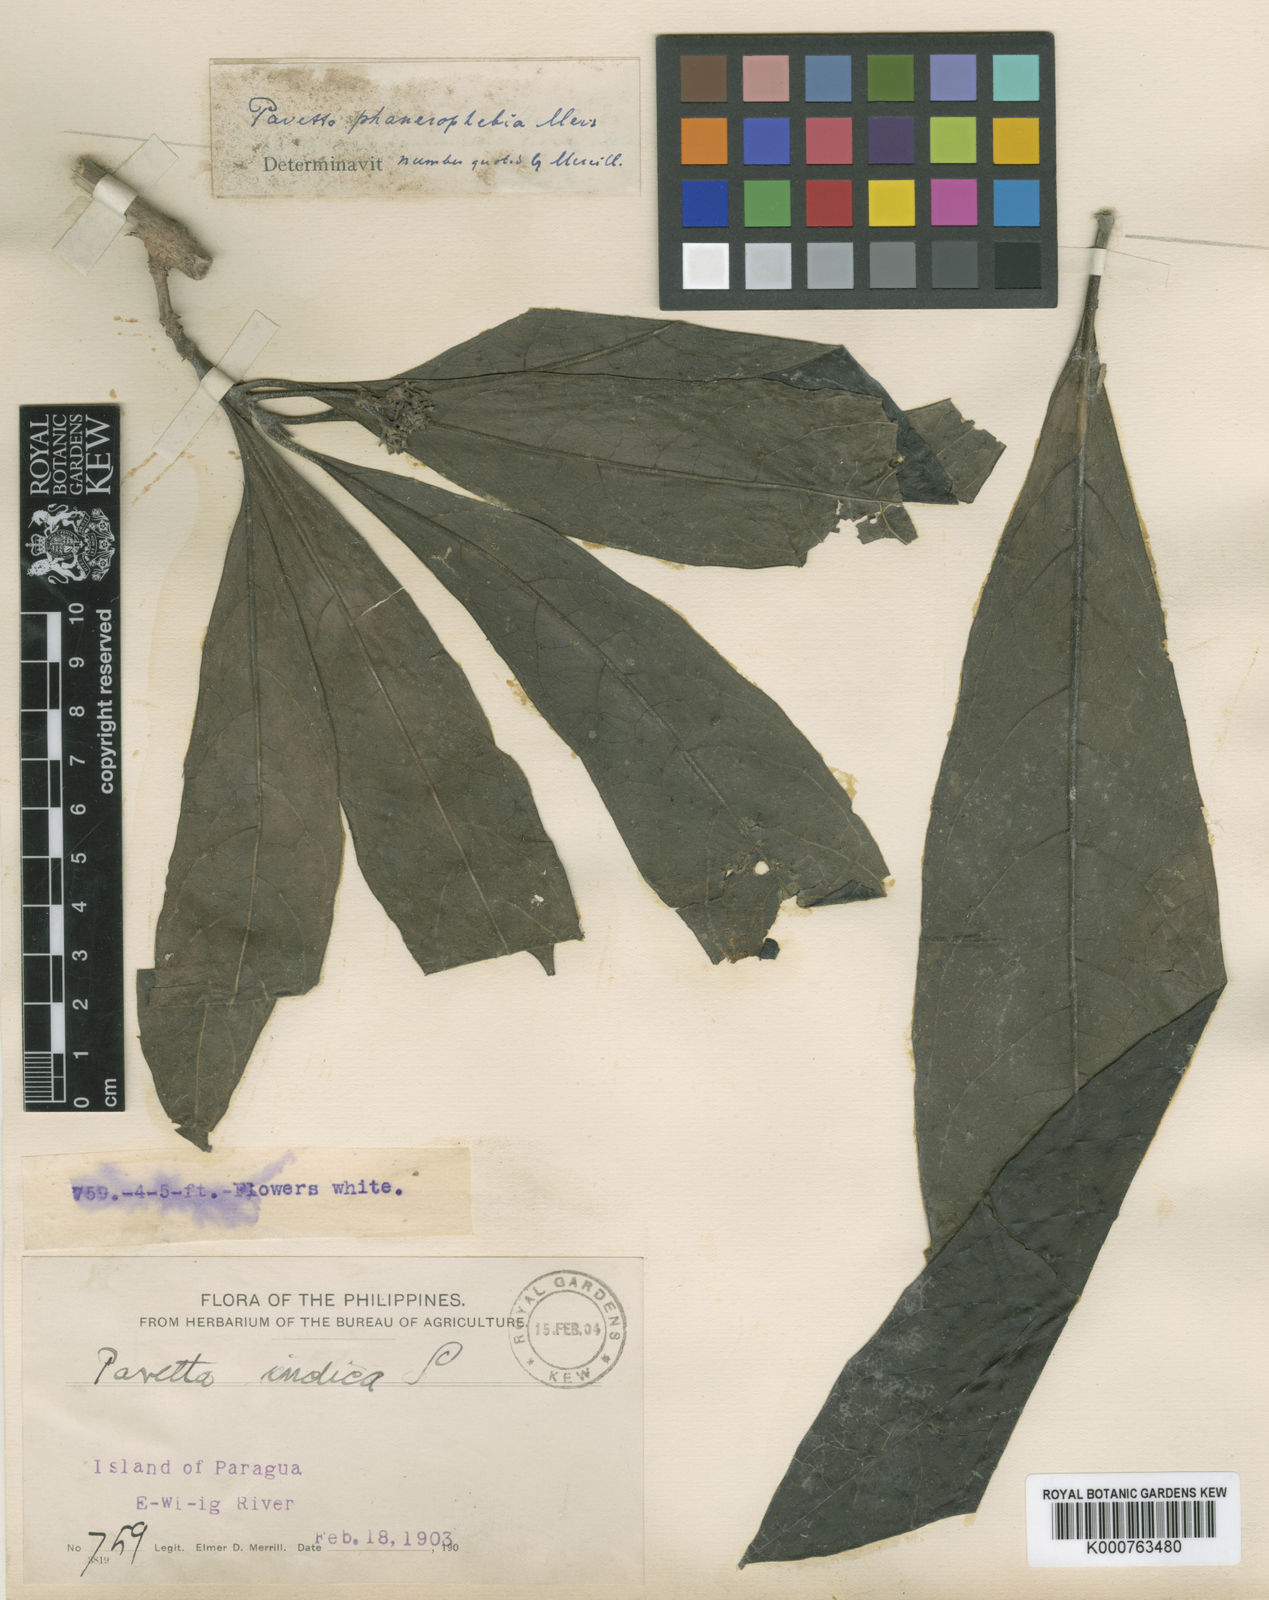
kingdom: Plantae
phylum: Tracheophyta
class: Magnoliopsida
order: Gentianales
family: Rubiaceae
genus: Pavetta
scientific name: Pavetta phanerophlebia
